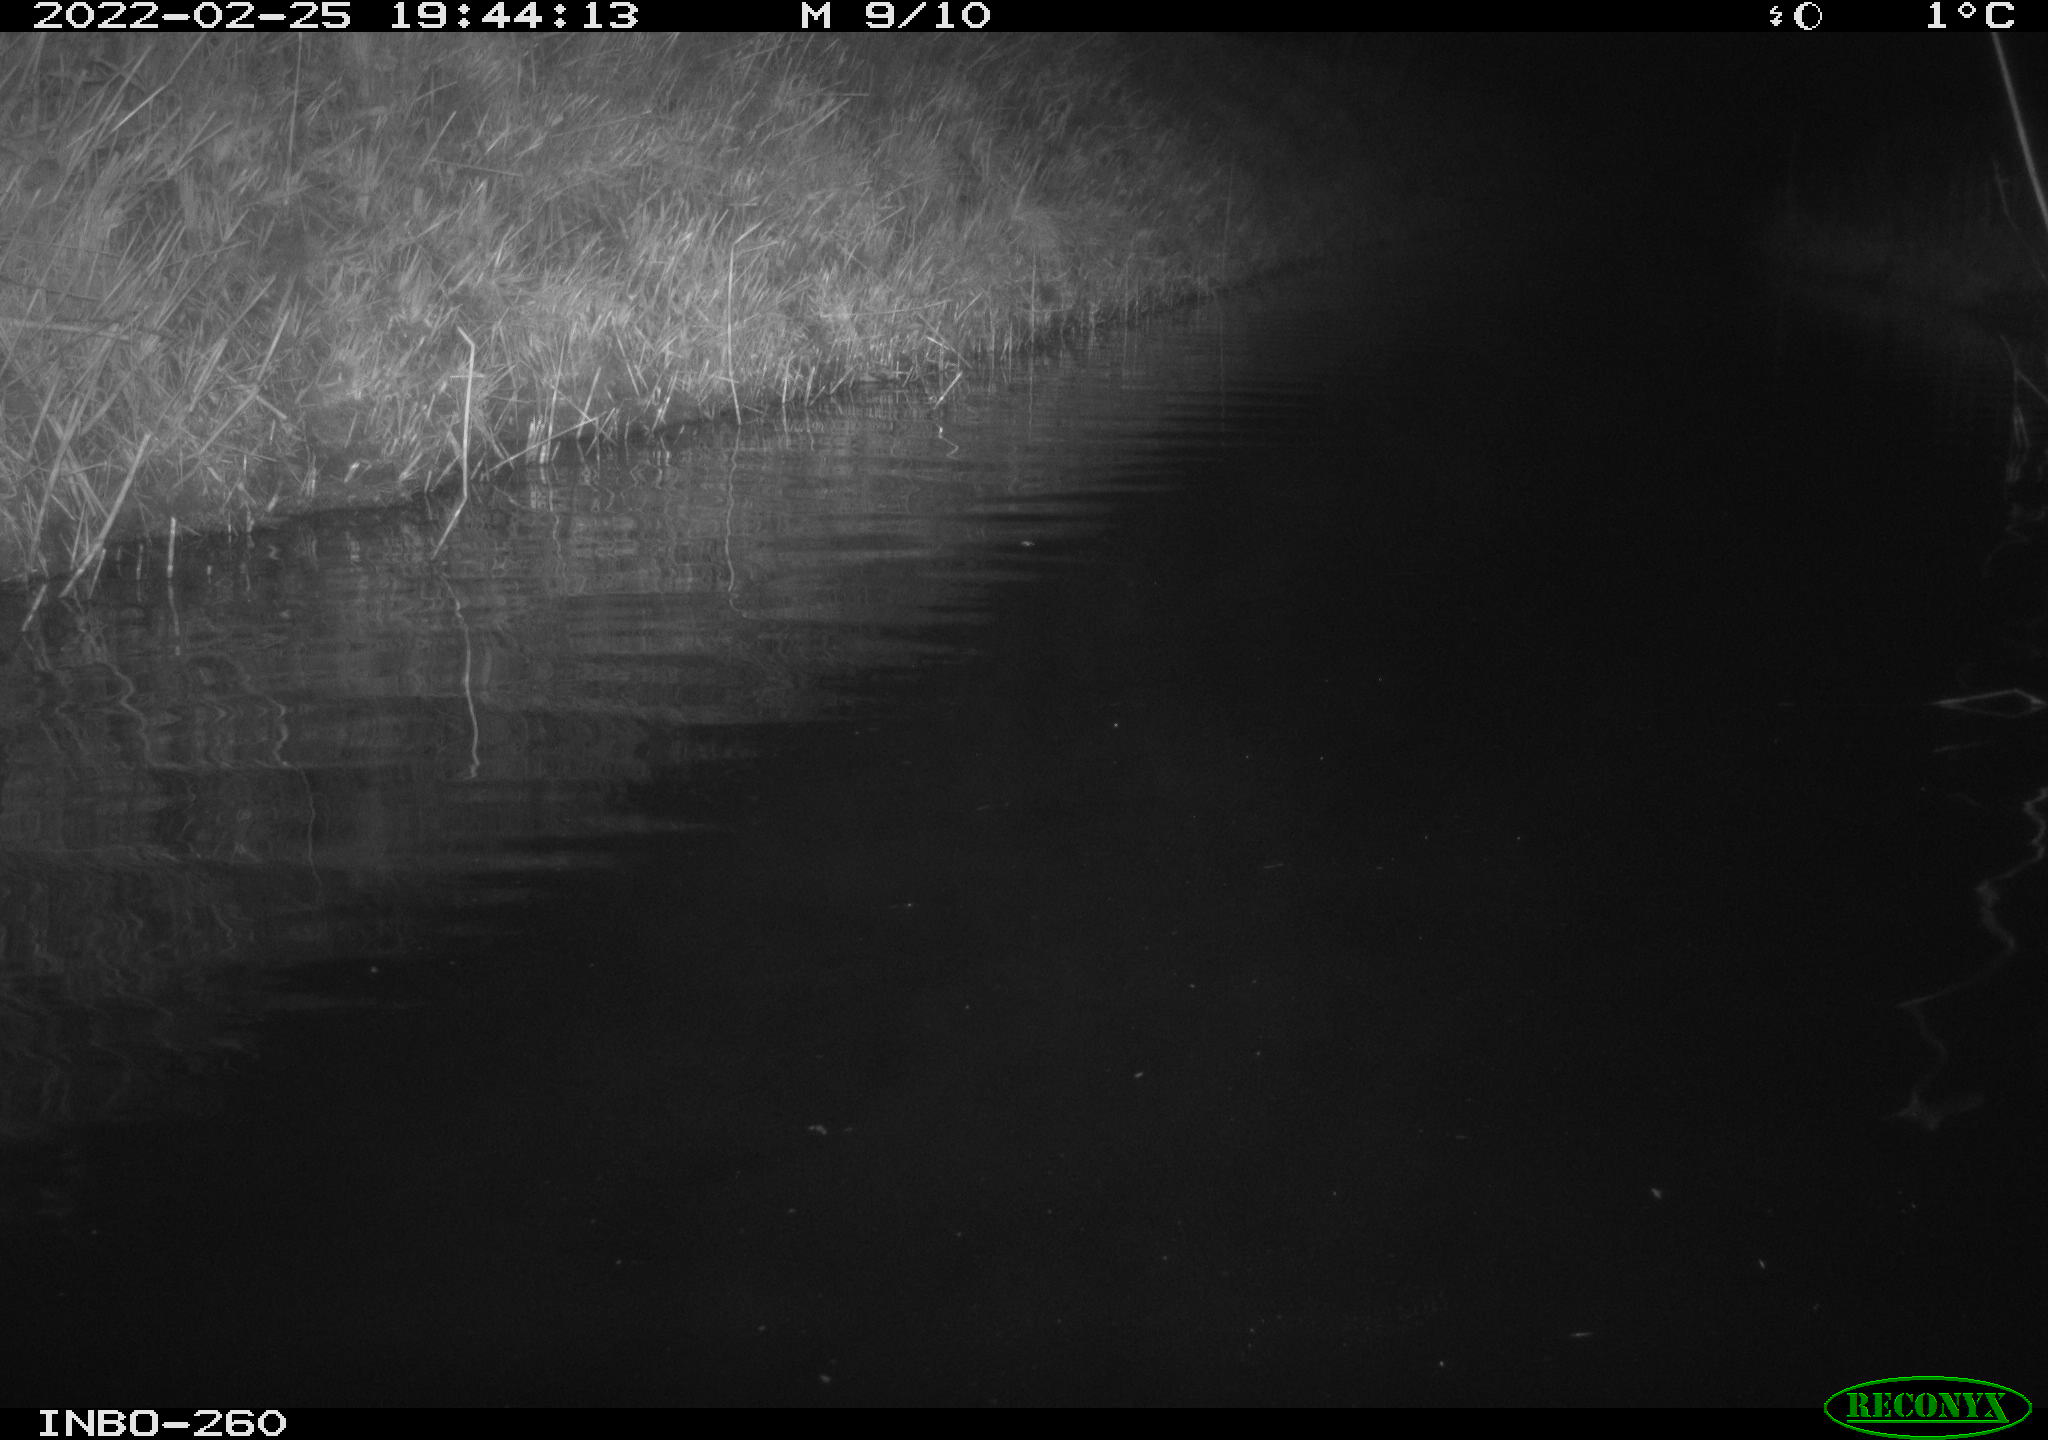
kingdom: Animalia
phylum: Chordata
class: Mammalia
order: Rodentia
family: Cricetidae
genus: Ondatra
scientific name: Ondatra zibethicus
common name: Muskrat
